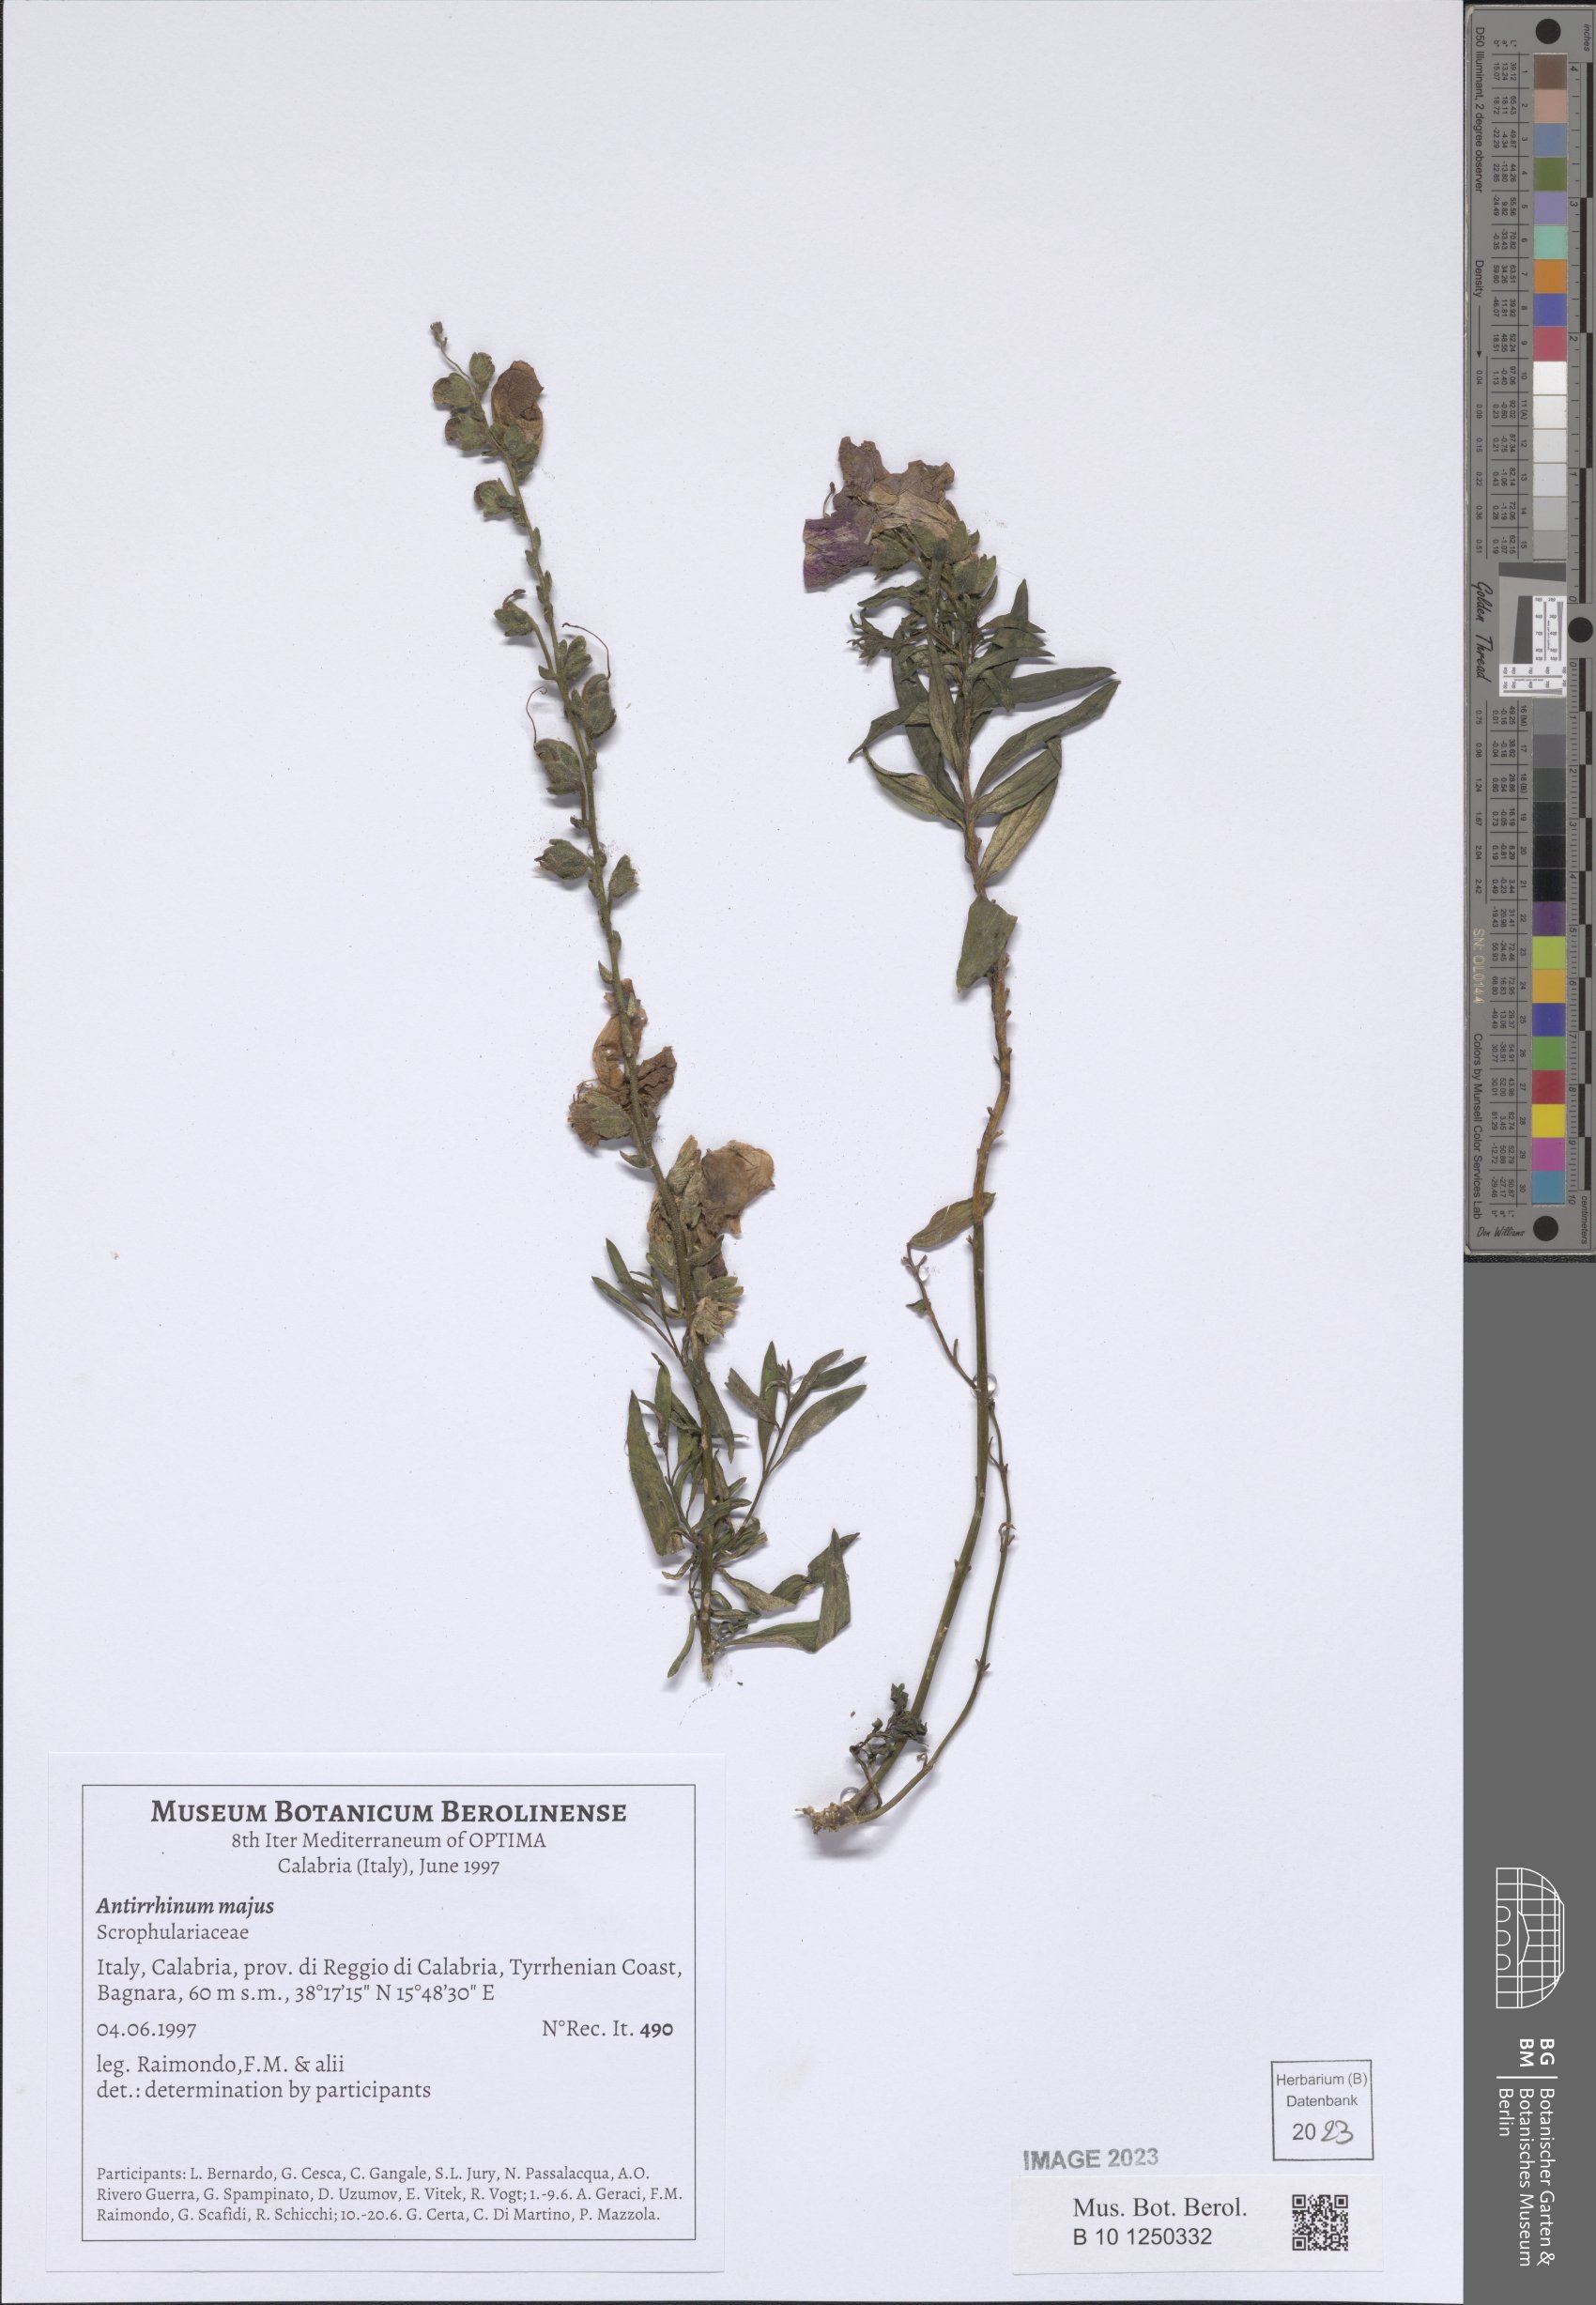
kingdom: Plantae
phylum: Tracheophyta
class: Magnoliopsida
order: Lamiales
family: Plantaginaceae
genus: Antirrhinum
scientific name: Antirrhinum majus
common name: Snapdragon
